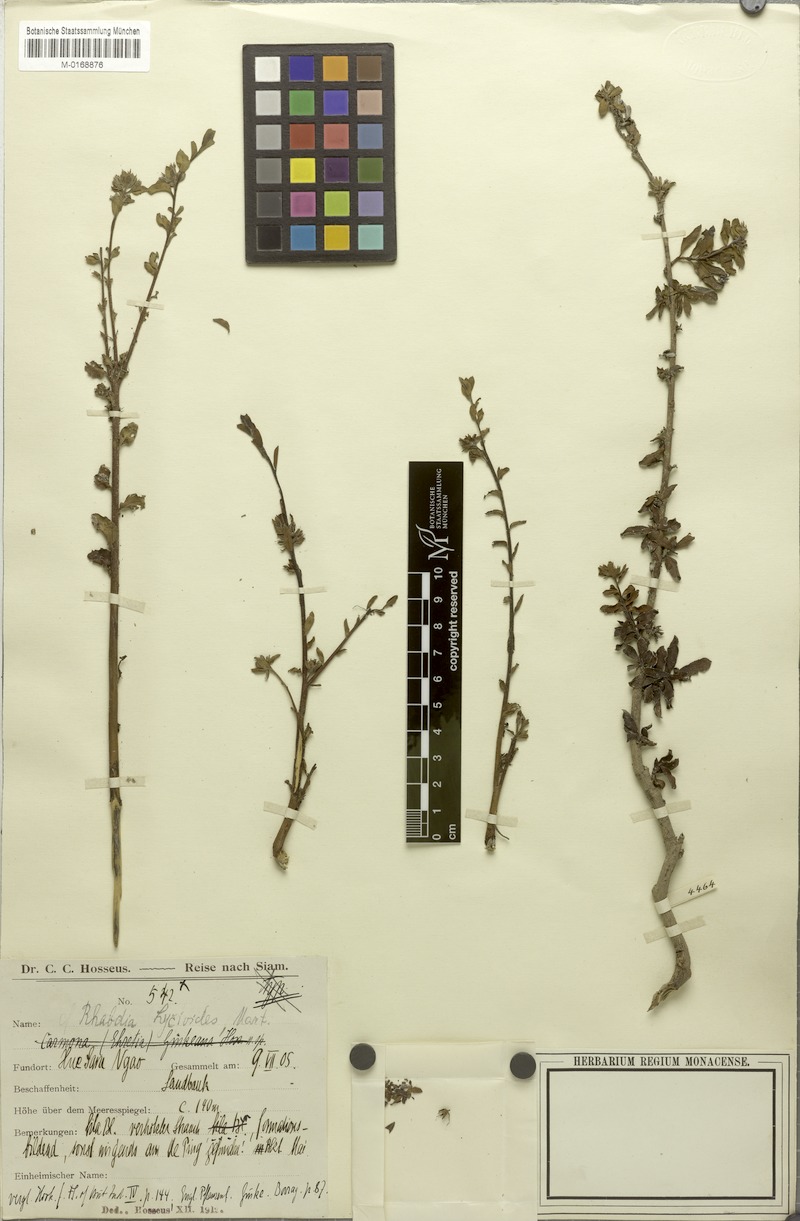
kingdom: Plantae
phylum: Tracheophyta
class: Magnoliopsida
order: Boraginales
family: Ehretiaceae
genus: Ehretia
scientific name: Ehretia aquatica
